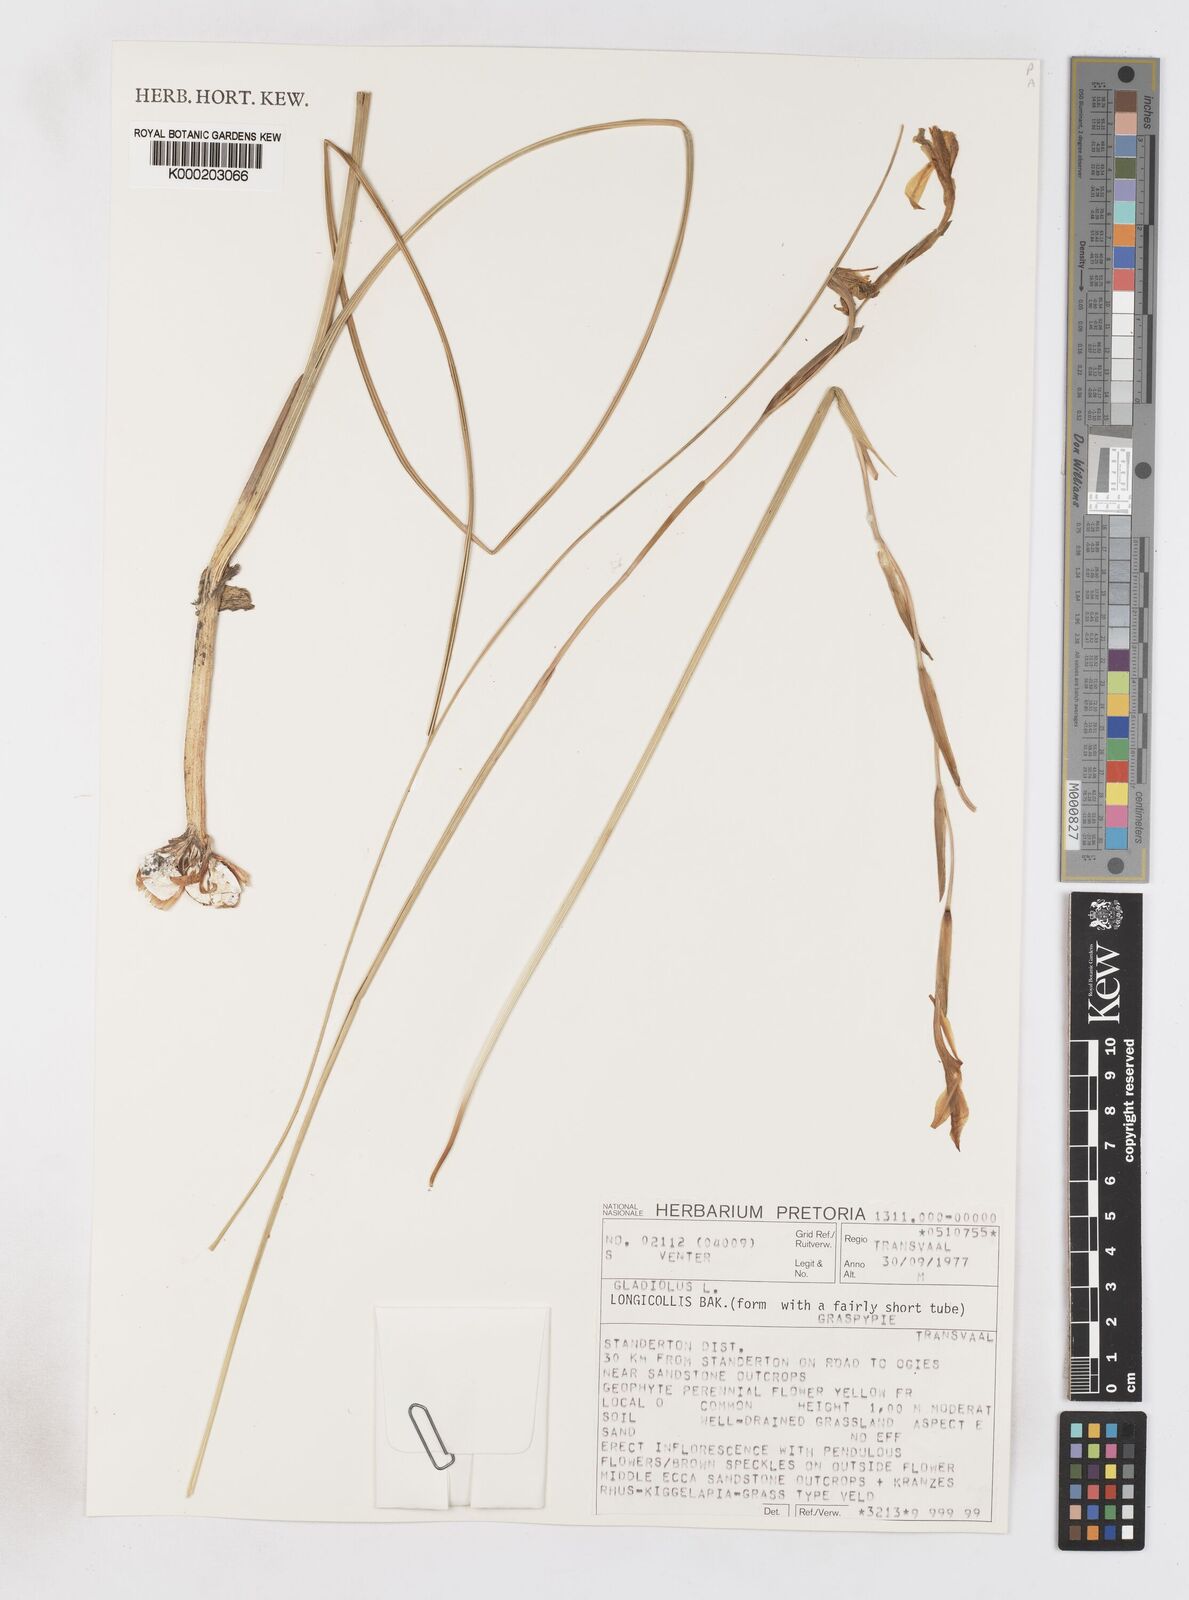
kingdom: Plantae
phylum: Tracheophyta
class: Liliopsida
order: Asparagales
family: Iridaceae
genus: Gladiolus
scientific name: Gladiolus longicollis
